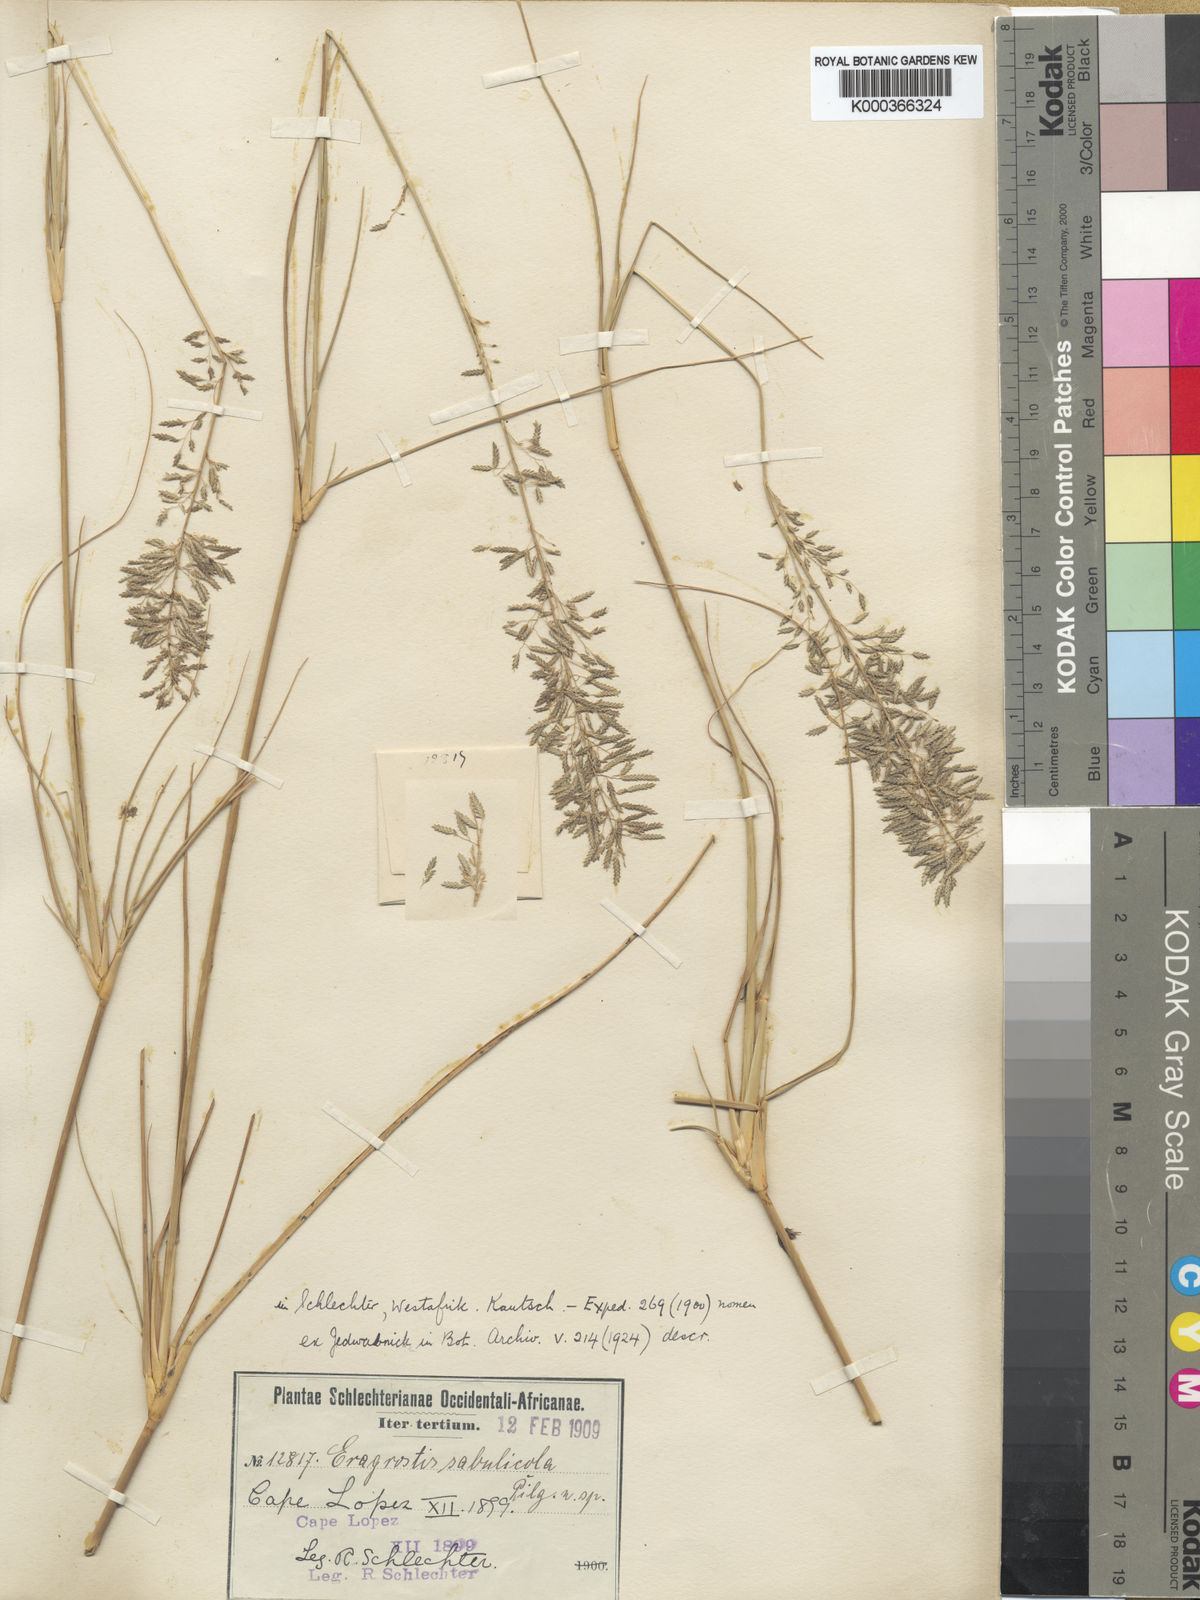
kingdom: Plantae
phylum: Tracheophyta
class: Liliopsida
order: Poales
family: Poaceae
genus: Eragrostis
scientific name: Eragrostis prolifera
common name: Dominican lovegrass
